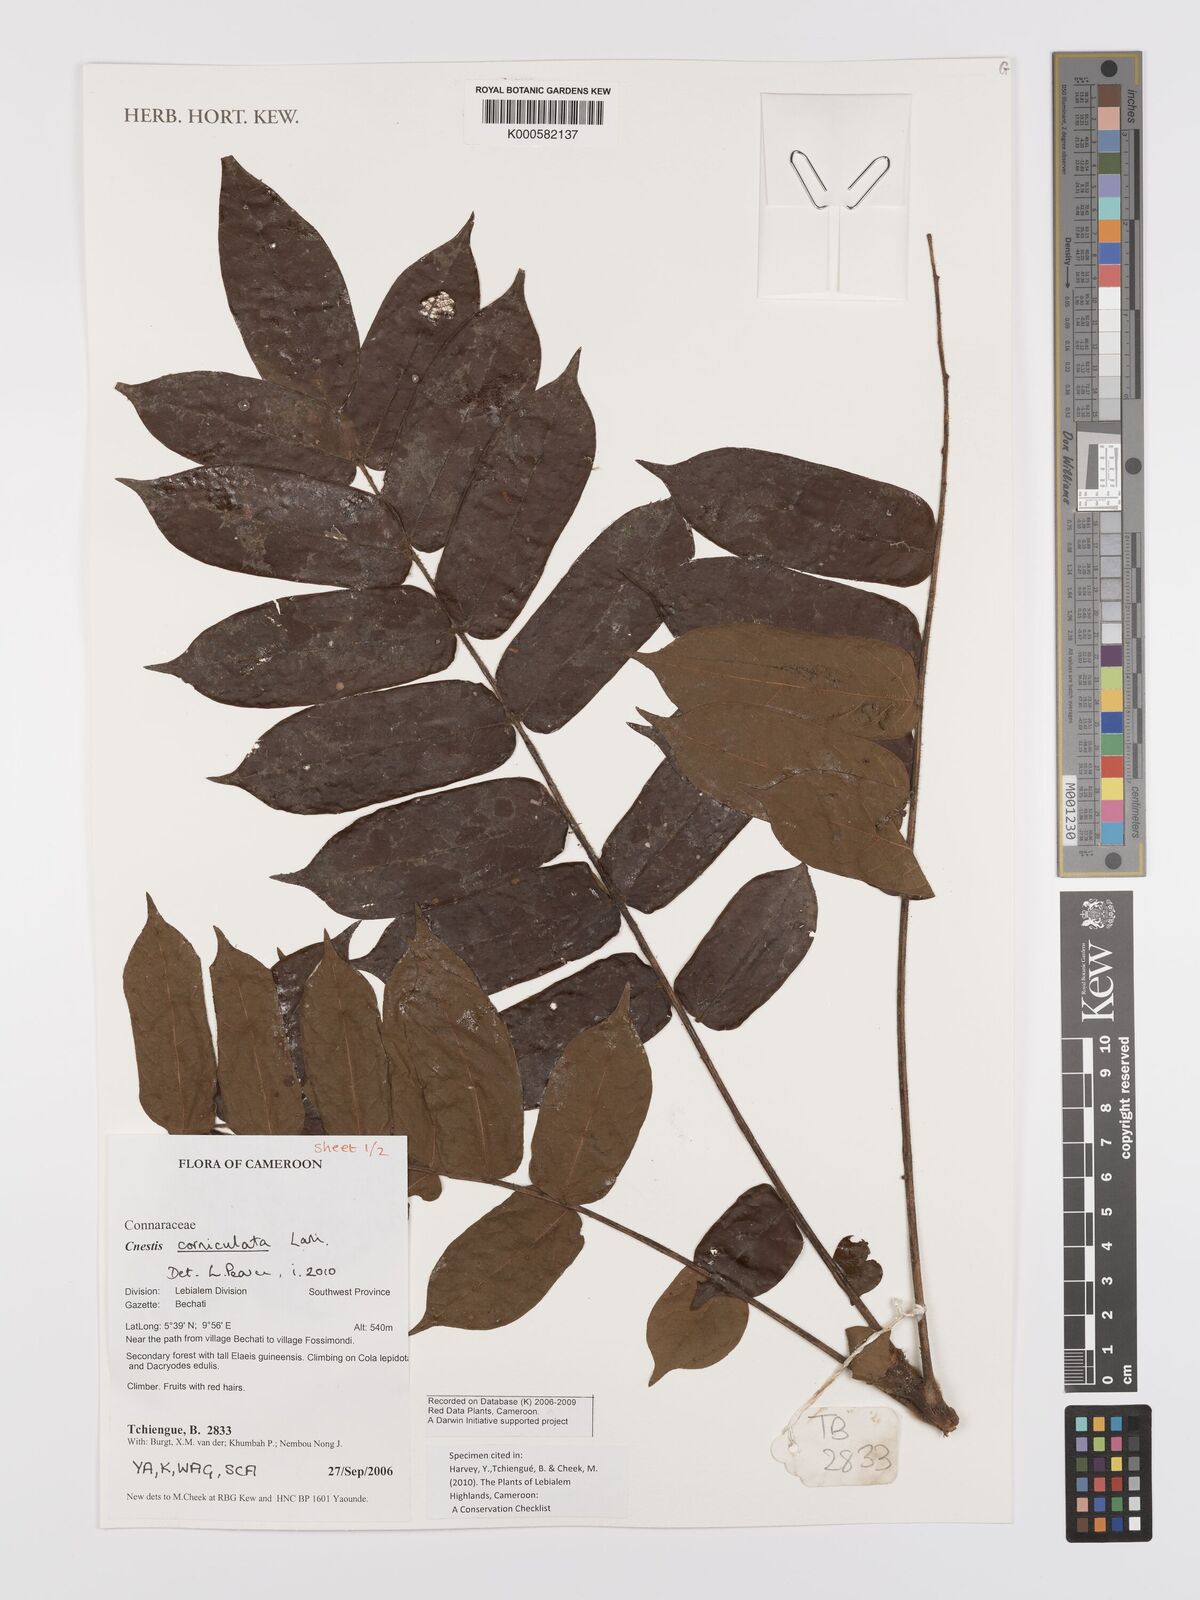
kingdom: Plantae
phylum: Tracheophyta
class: Magnoliopsida
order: Oxalidales
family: Connaraceae
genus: Cnestis
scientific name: Cnestis corniculata
